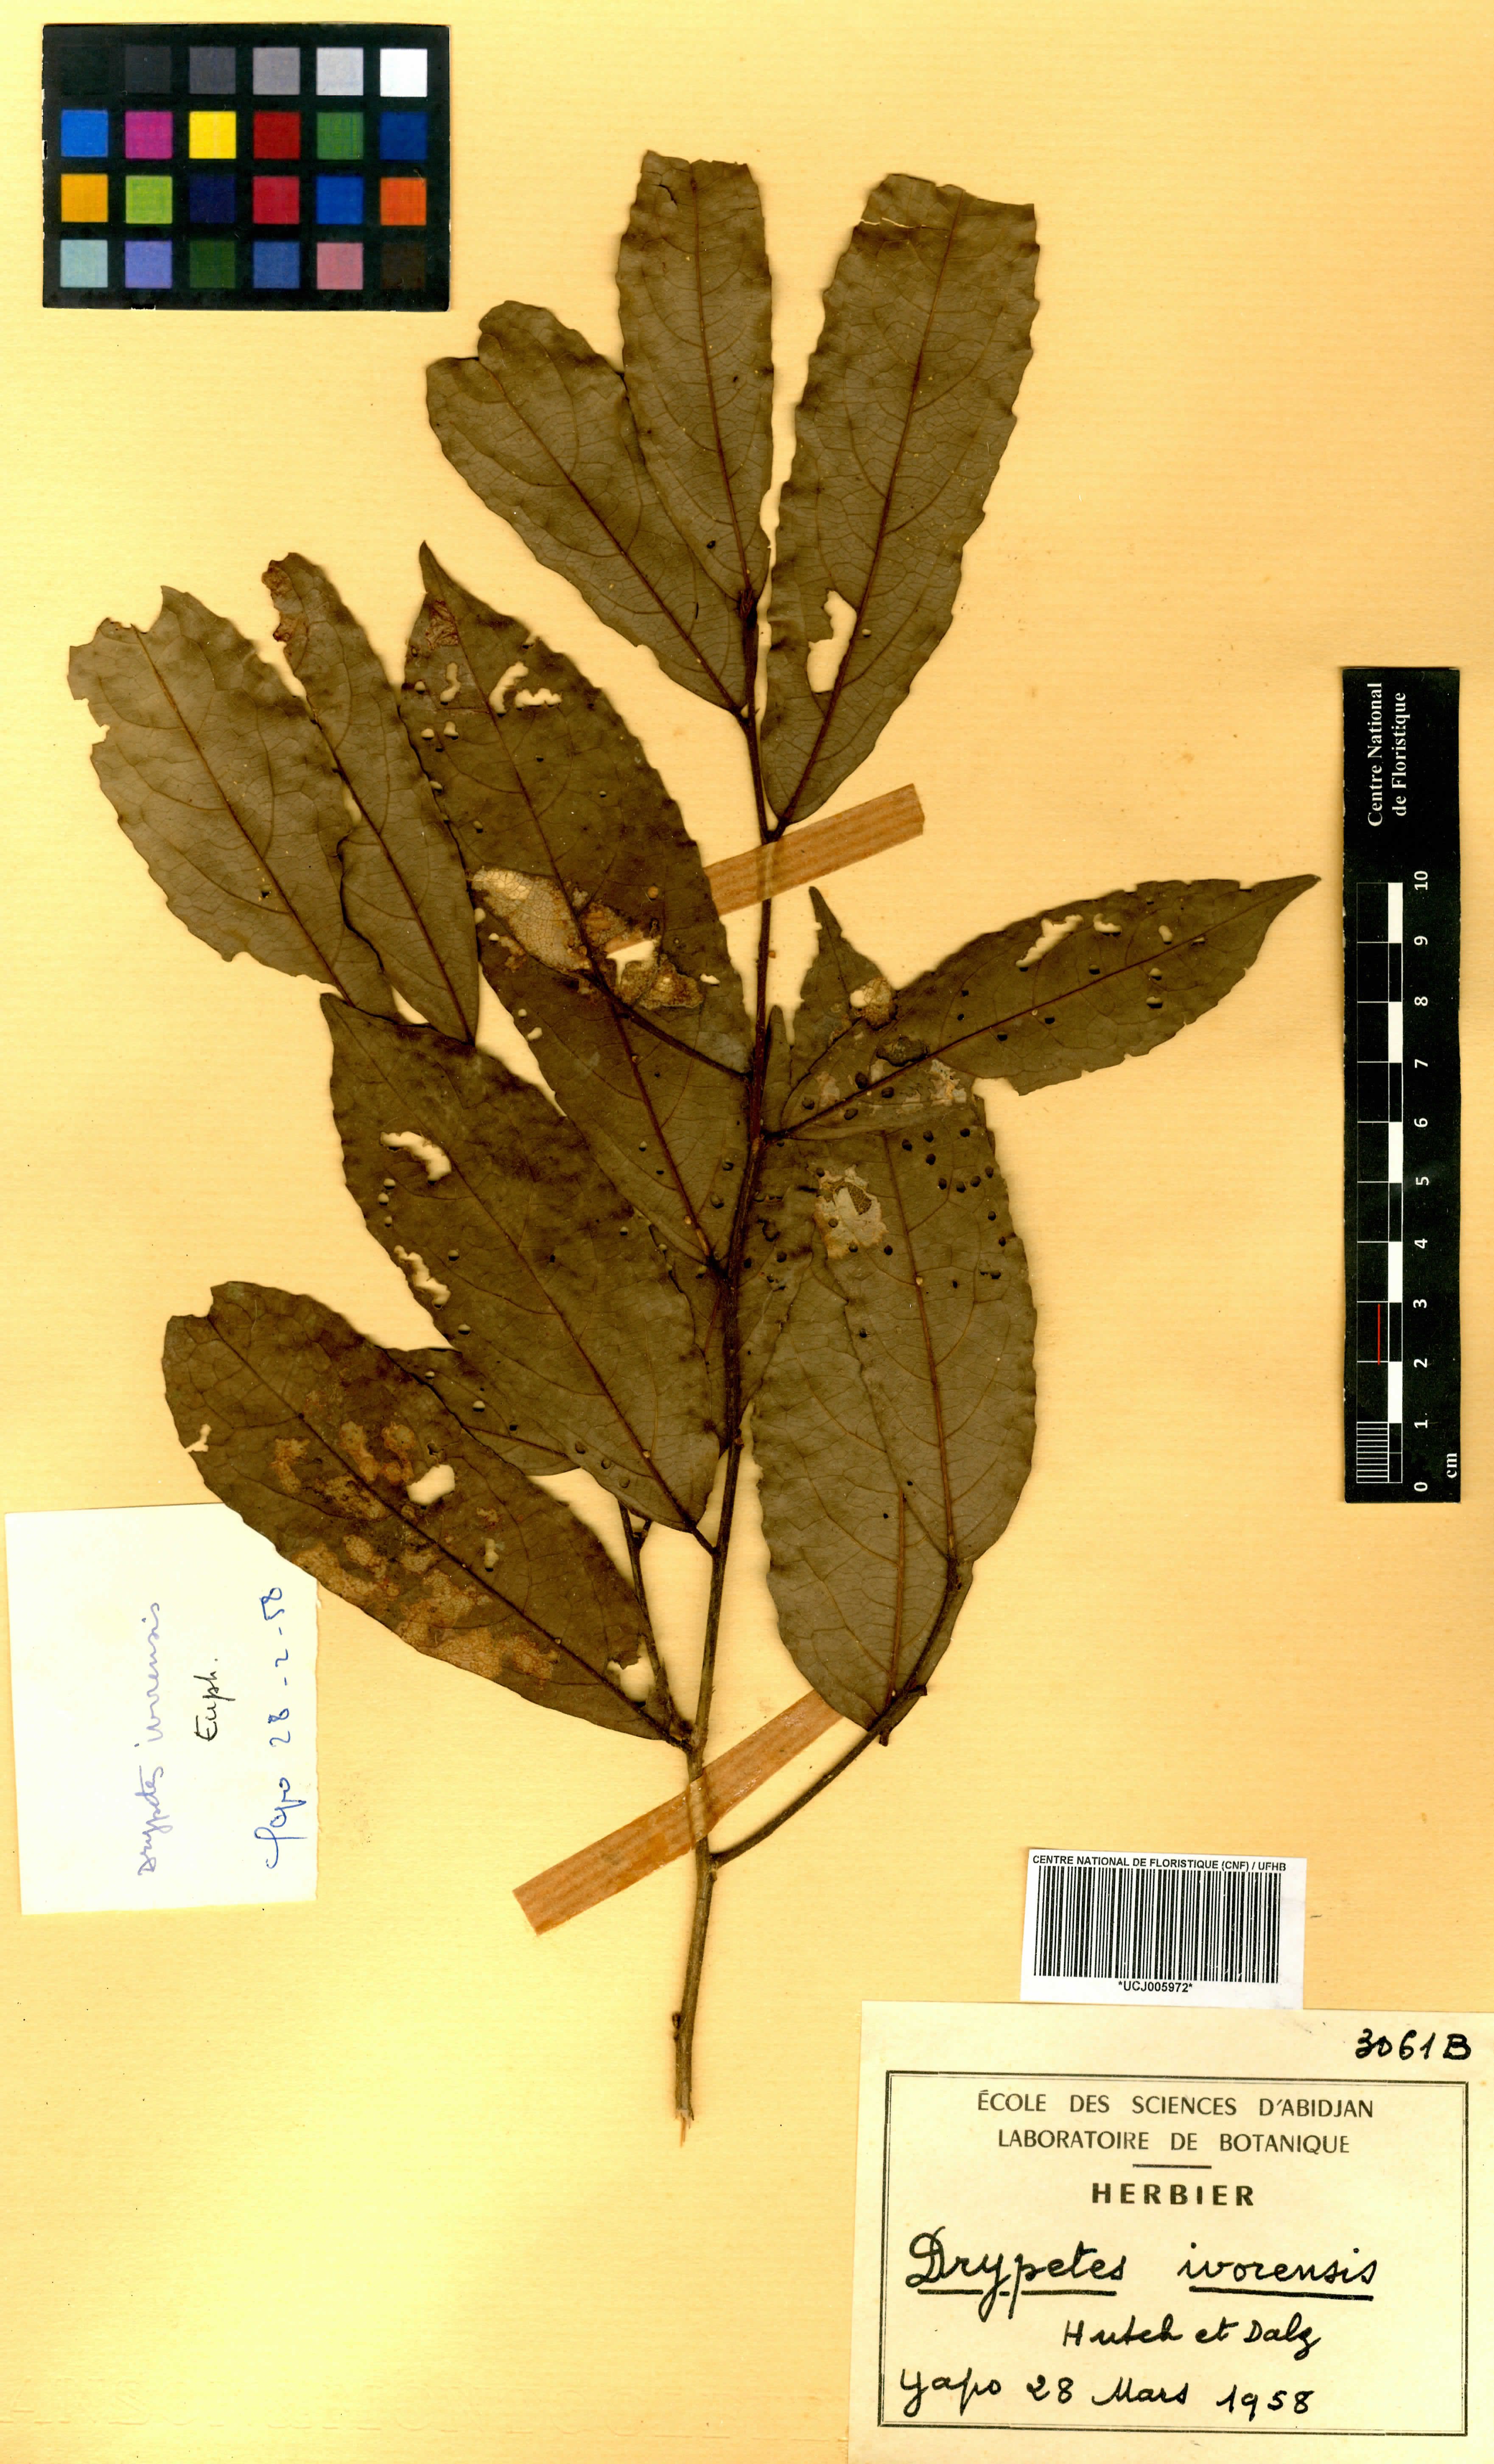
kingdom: Plantae
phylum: Tracheophyta
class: Magnoliopsida
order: Malpighiales
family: Putranjivaceae
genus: Drypetes
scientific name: Drypetes ivorensis
